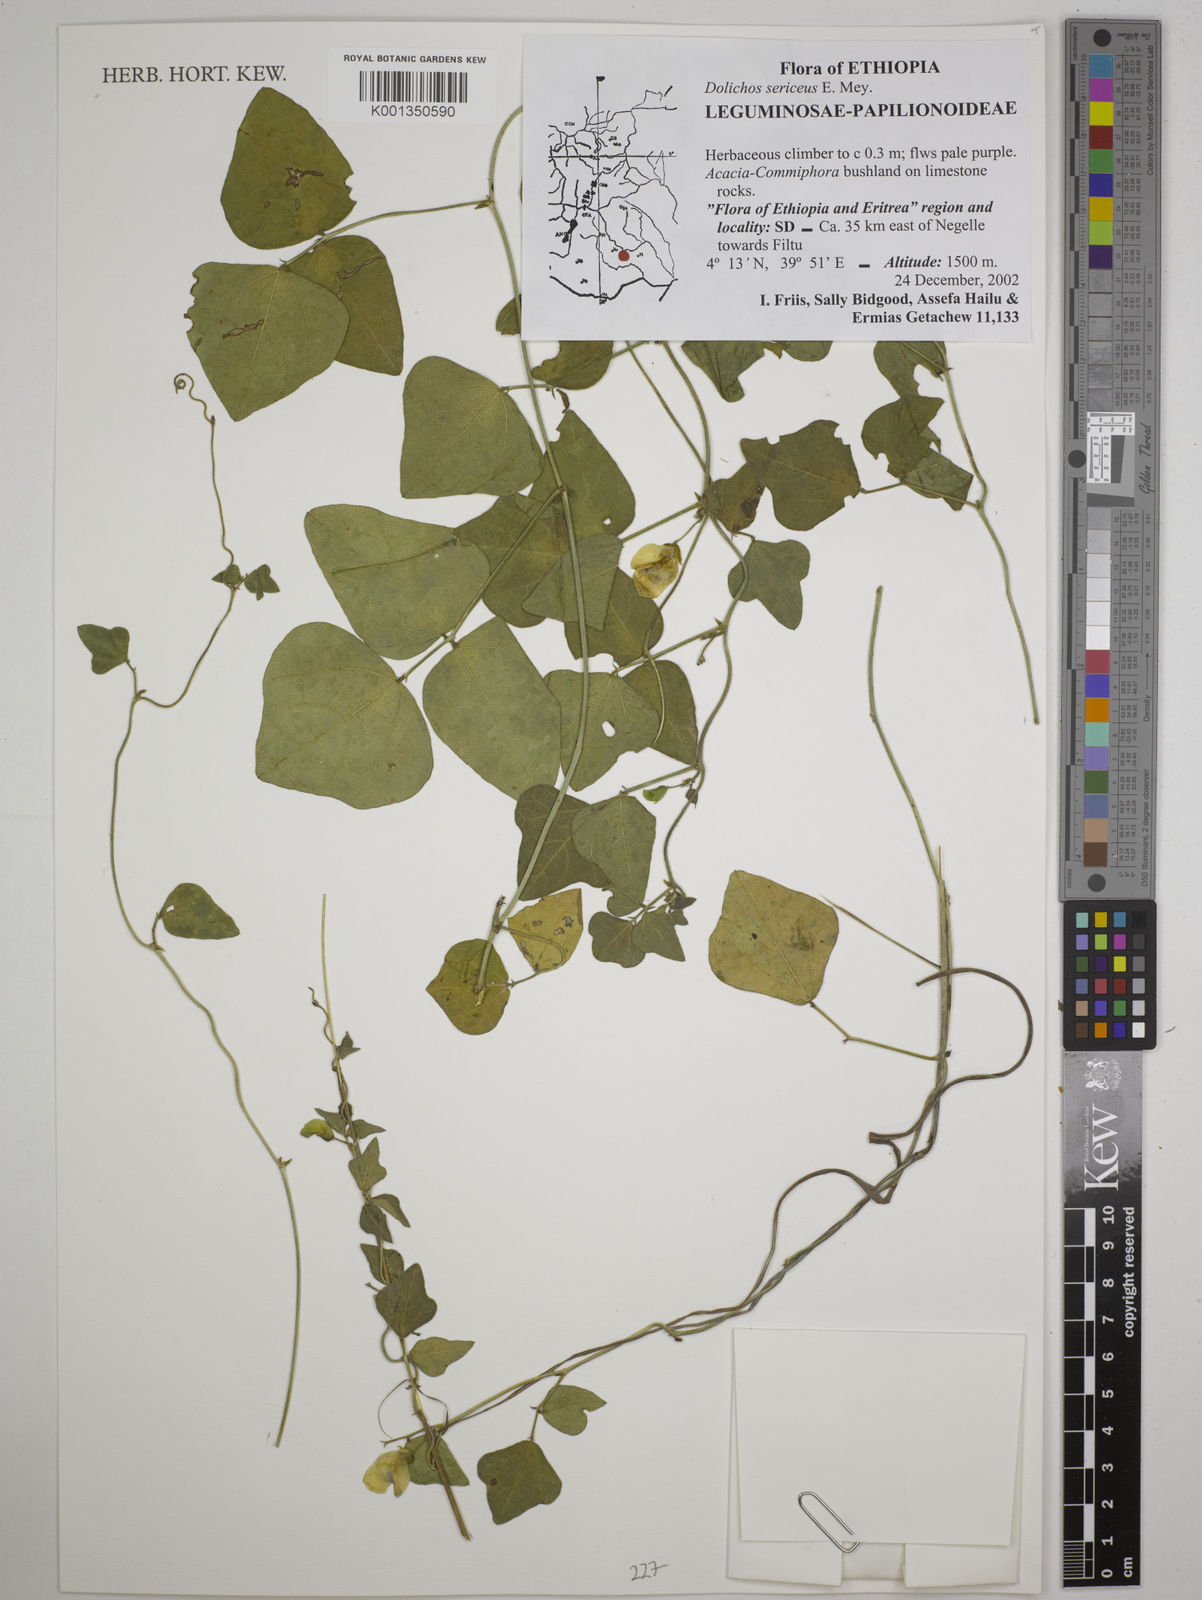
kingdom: Plantae
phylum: Tracheophyta
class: Magnoliopsida
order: Fabales
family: Fabaceae
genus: Dolichos
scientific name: Dolichos sericeus
